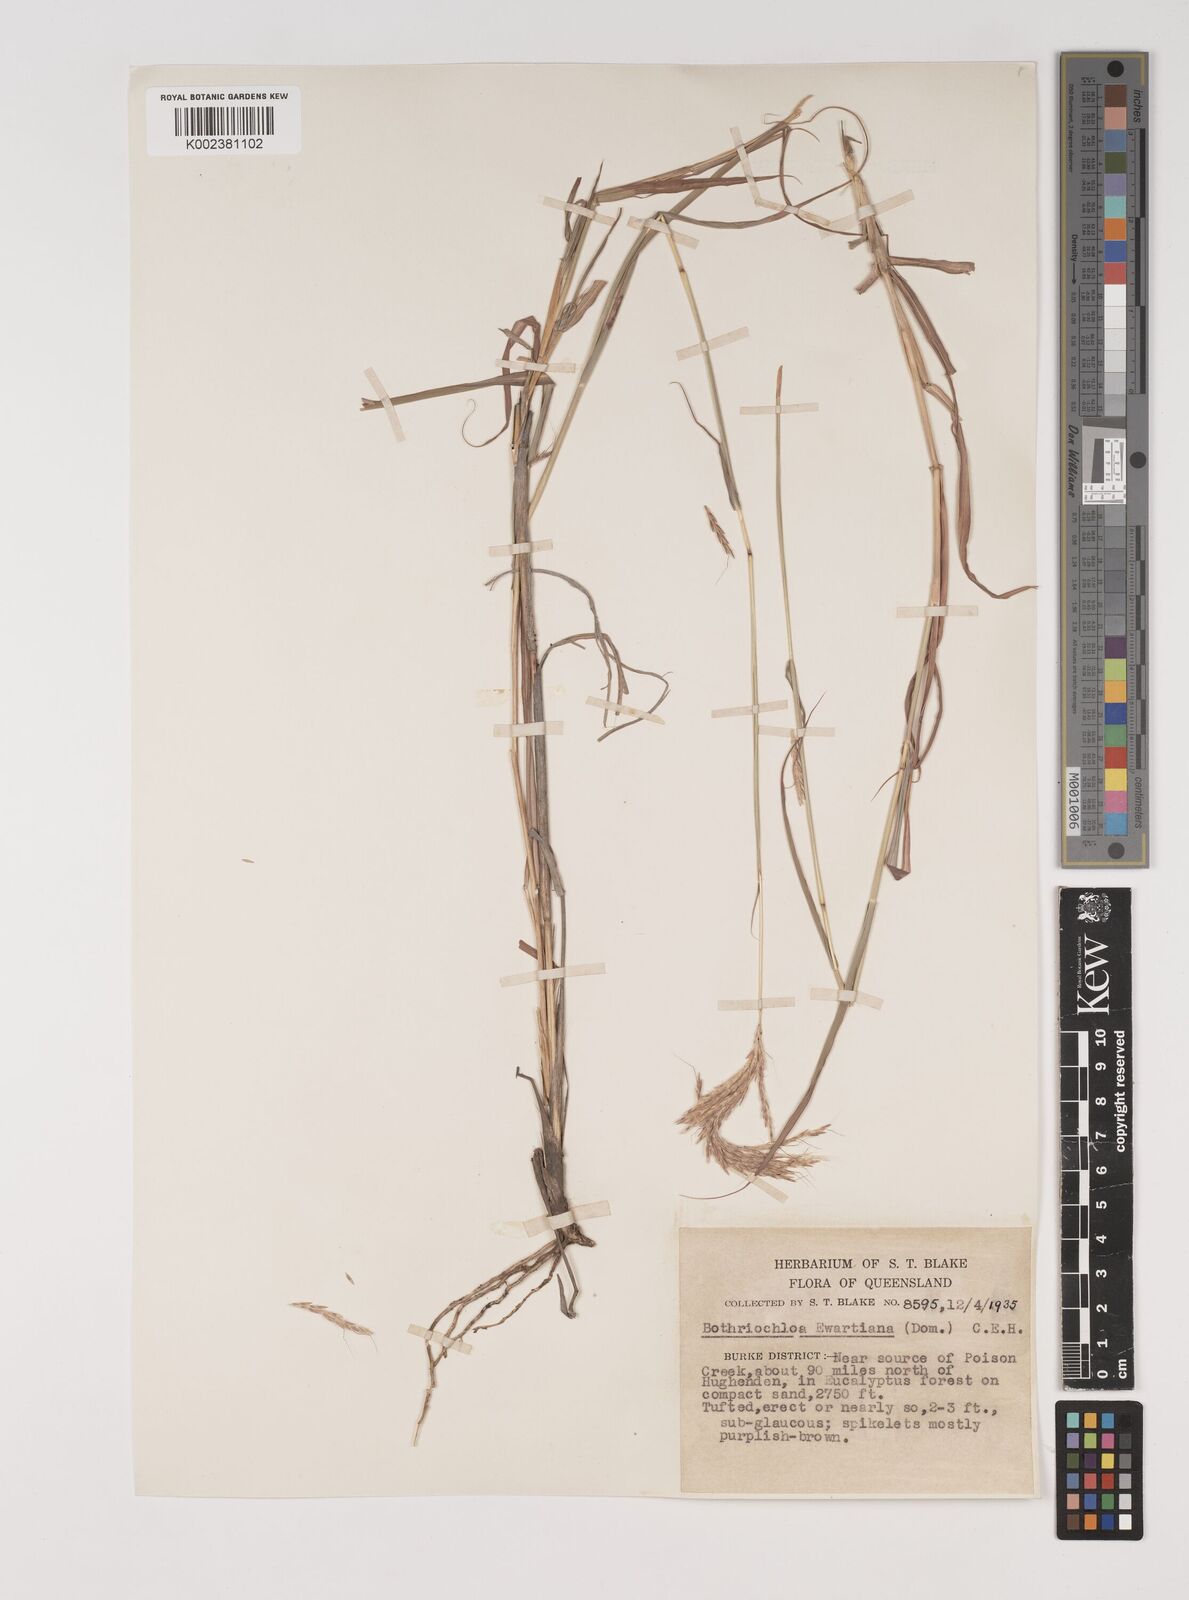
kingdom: Plantae
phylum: Tracheophyta
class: Liliopsida
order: Poales
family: Poaceae
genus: Bothriochloa
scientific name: Bothriochloa ewartiana
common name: Desert-bluegrass
